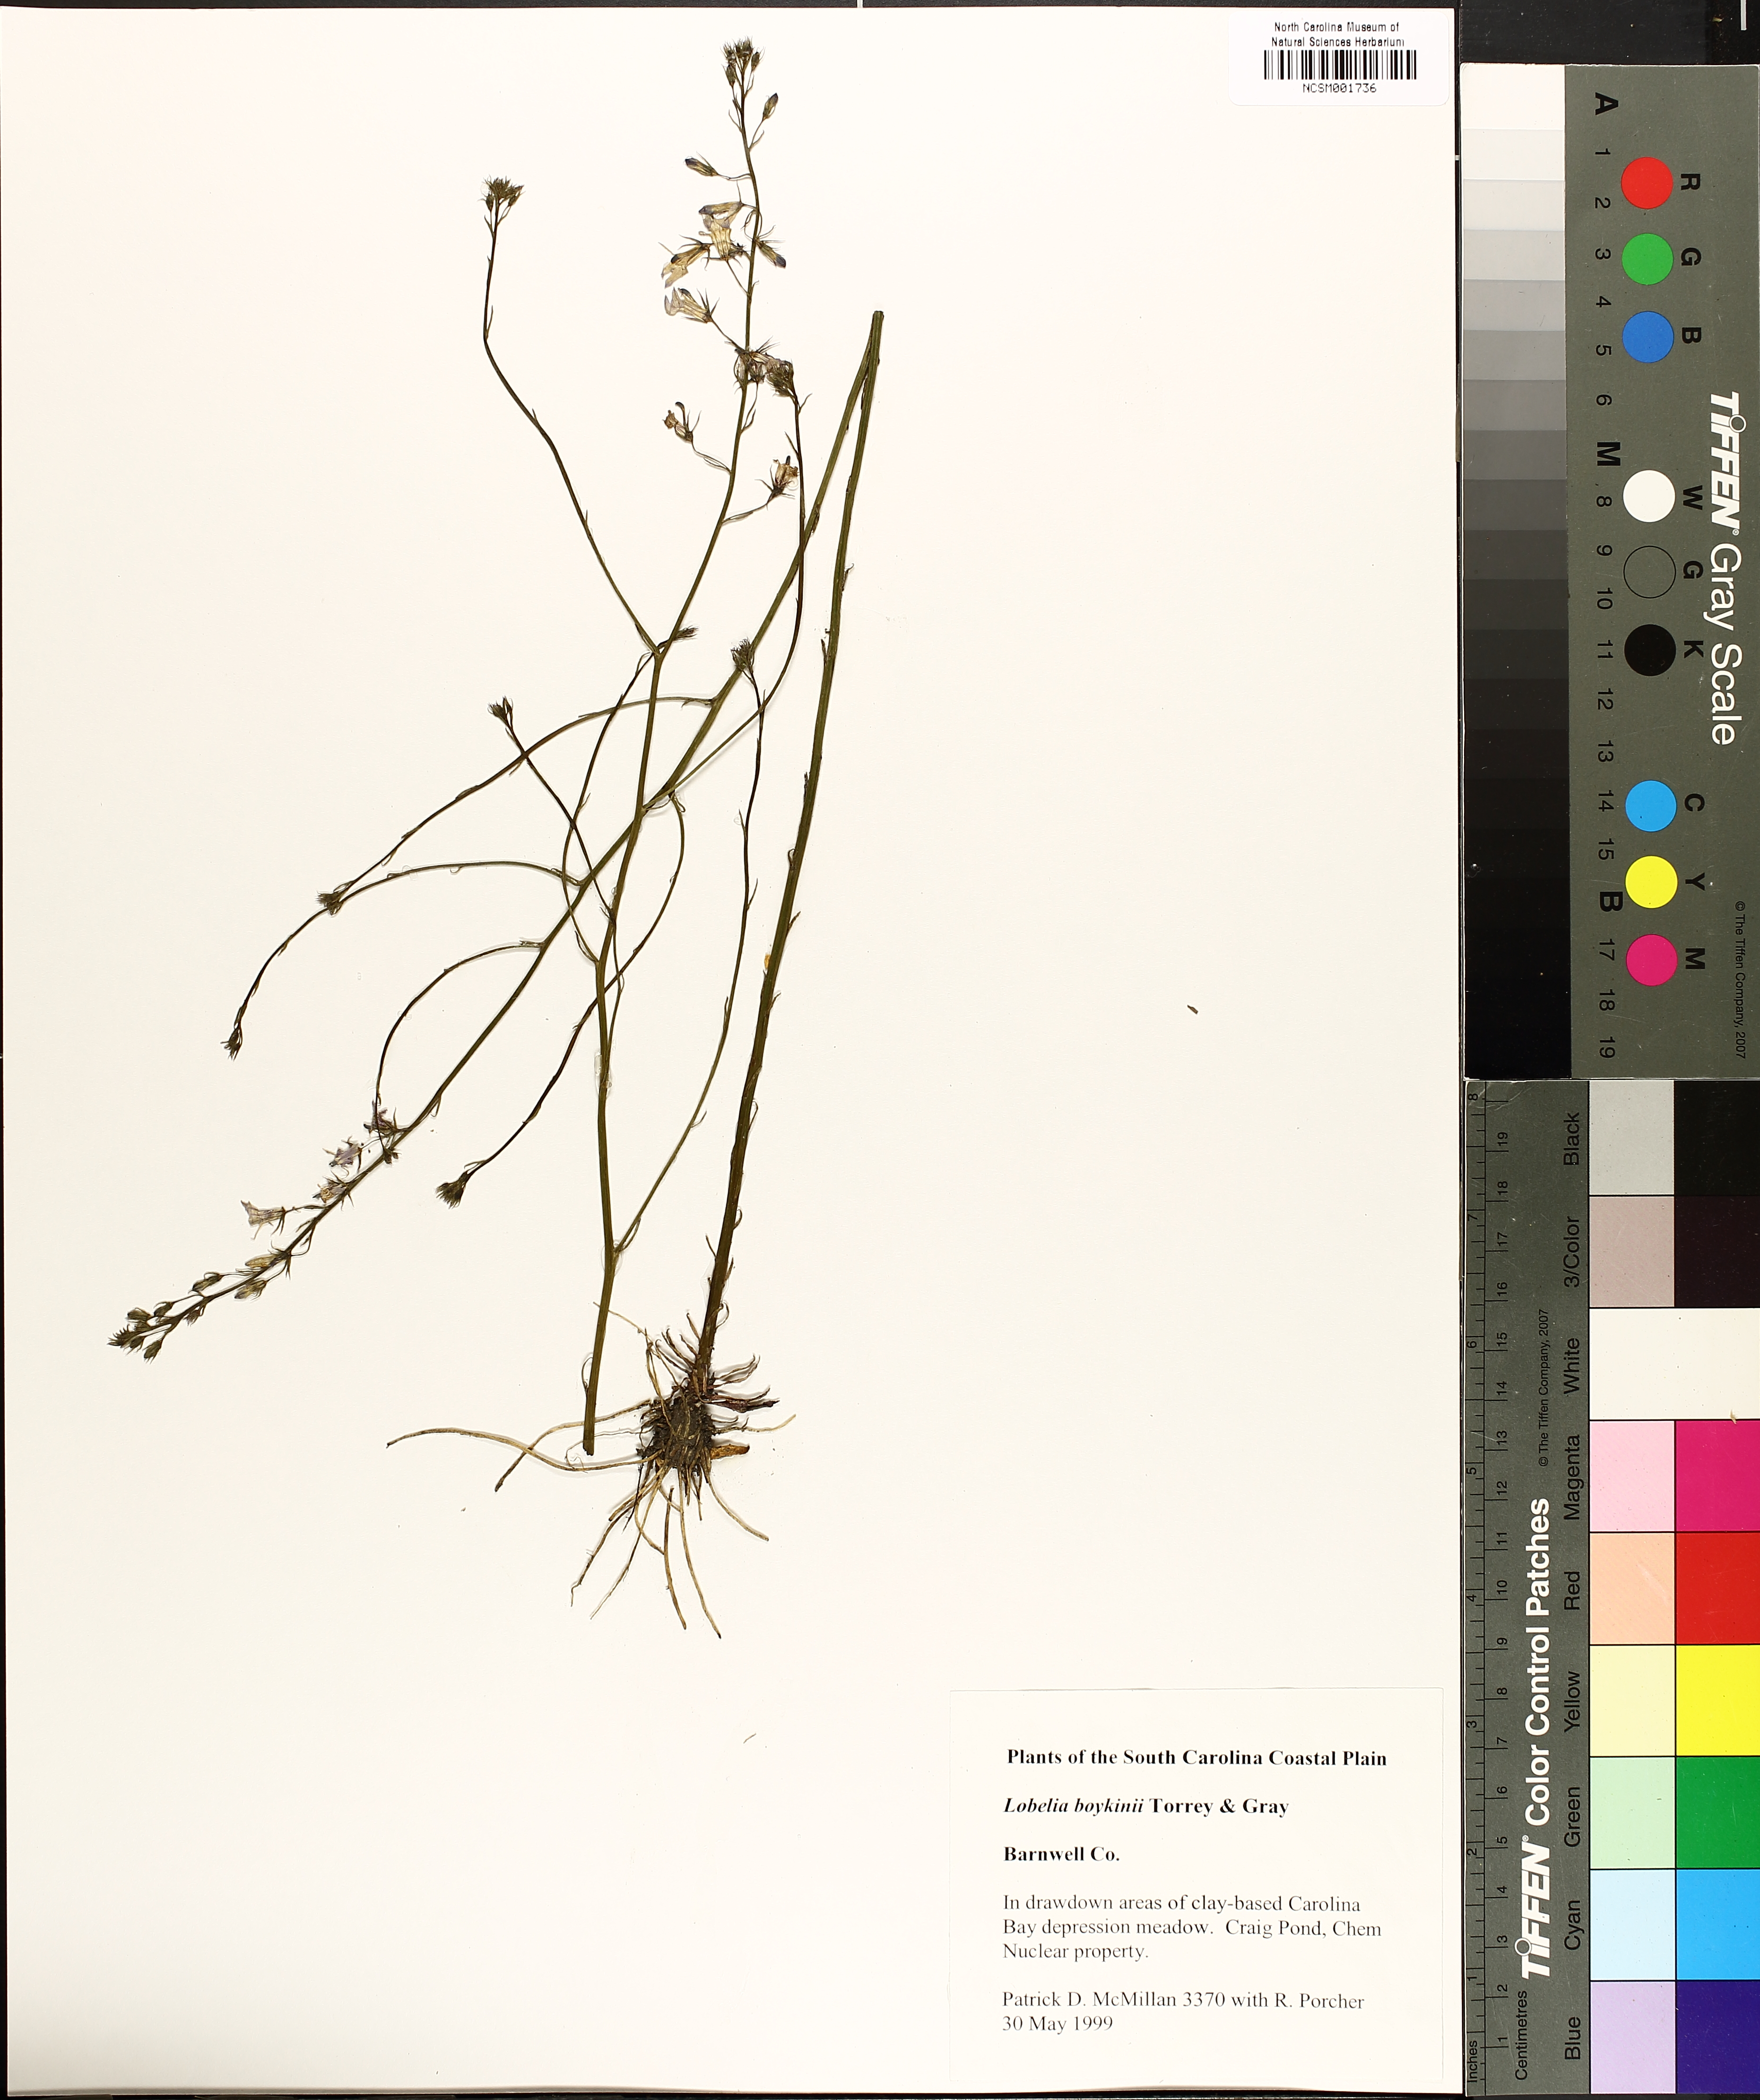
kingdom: Plantae
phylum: Tracheophyta
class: Magnoliopsida
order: Asterales
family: Campanulaceae
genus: Lobelia
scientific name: Lobelia boykinii
